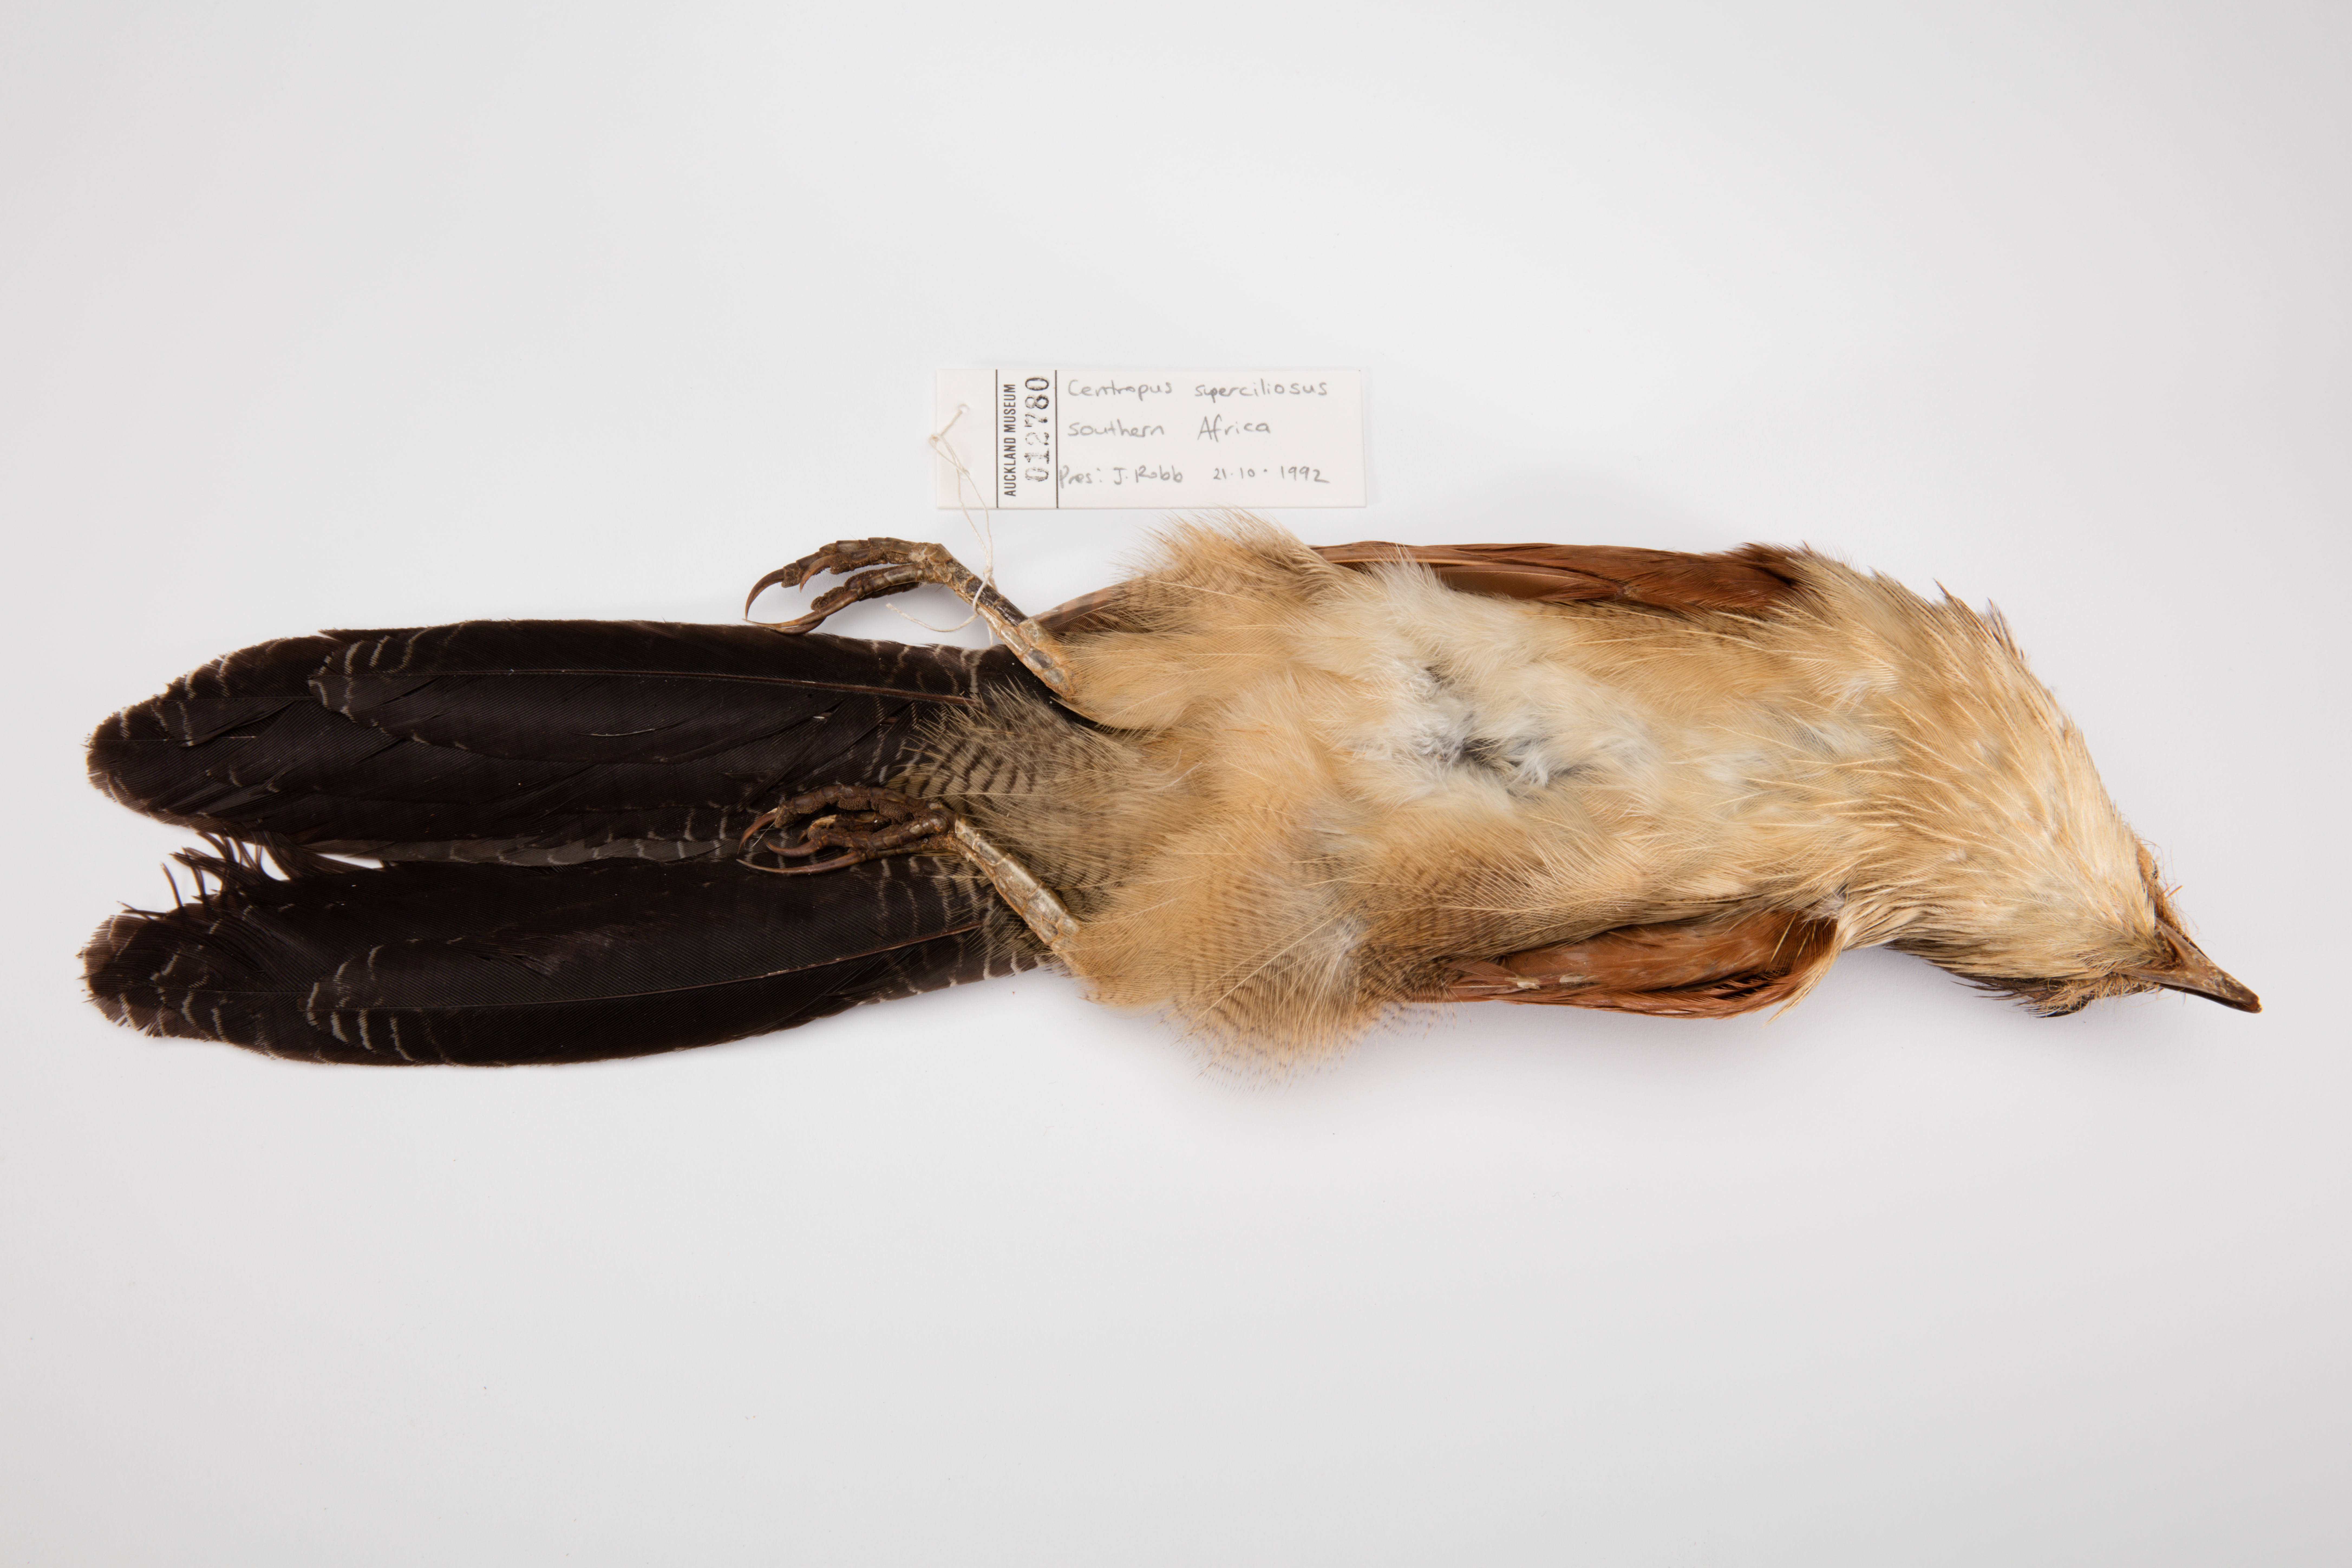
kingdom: Animalia
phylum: Chordata
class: Aves
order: Cuculiformes
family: Cuculidae
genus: Centropus
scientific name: Centropus superciliosus
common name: White-browed coucal
